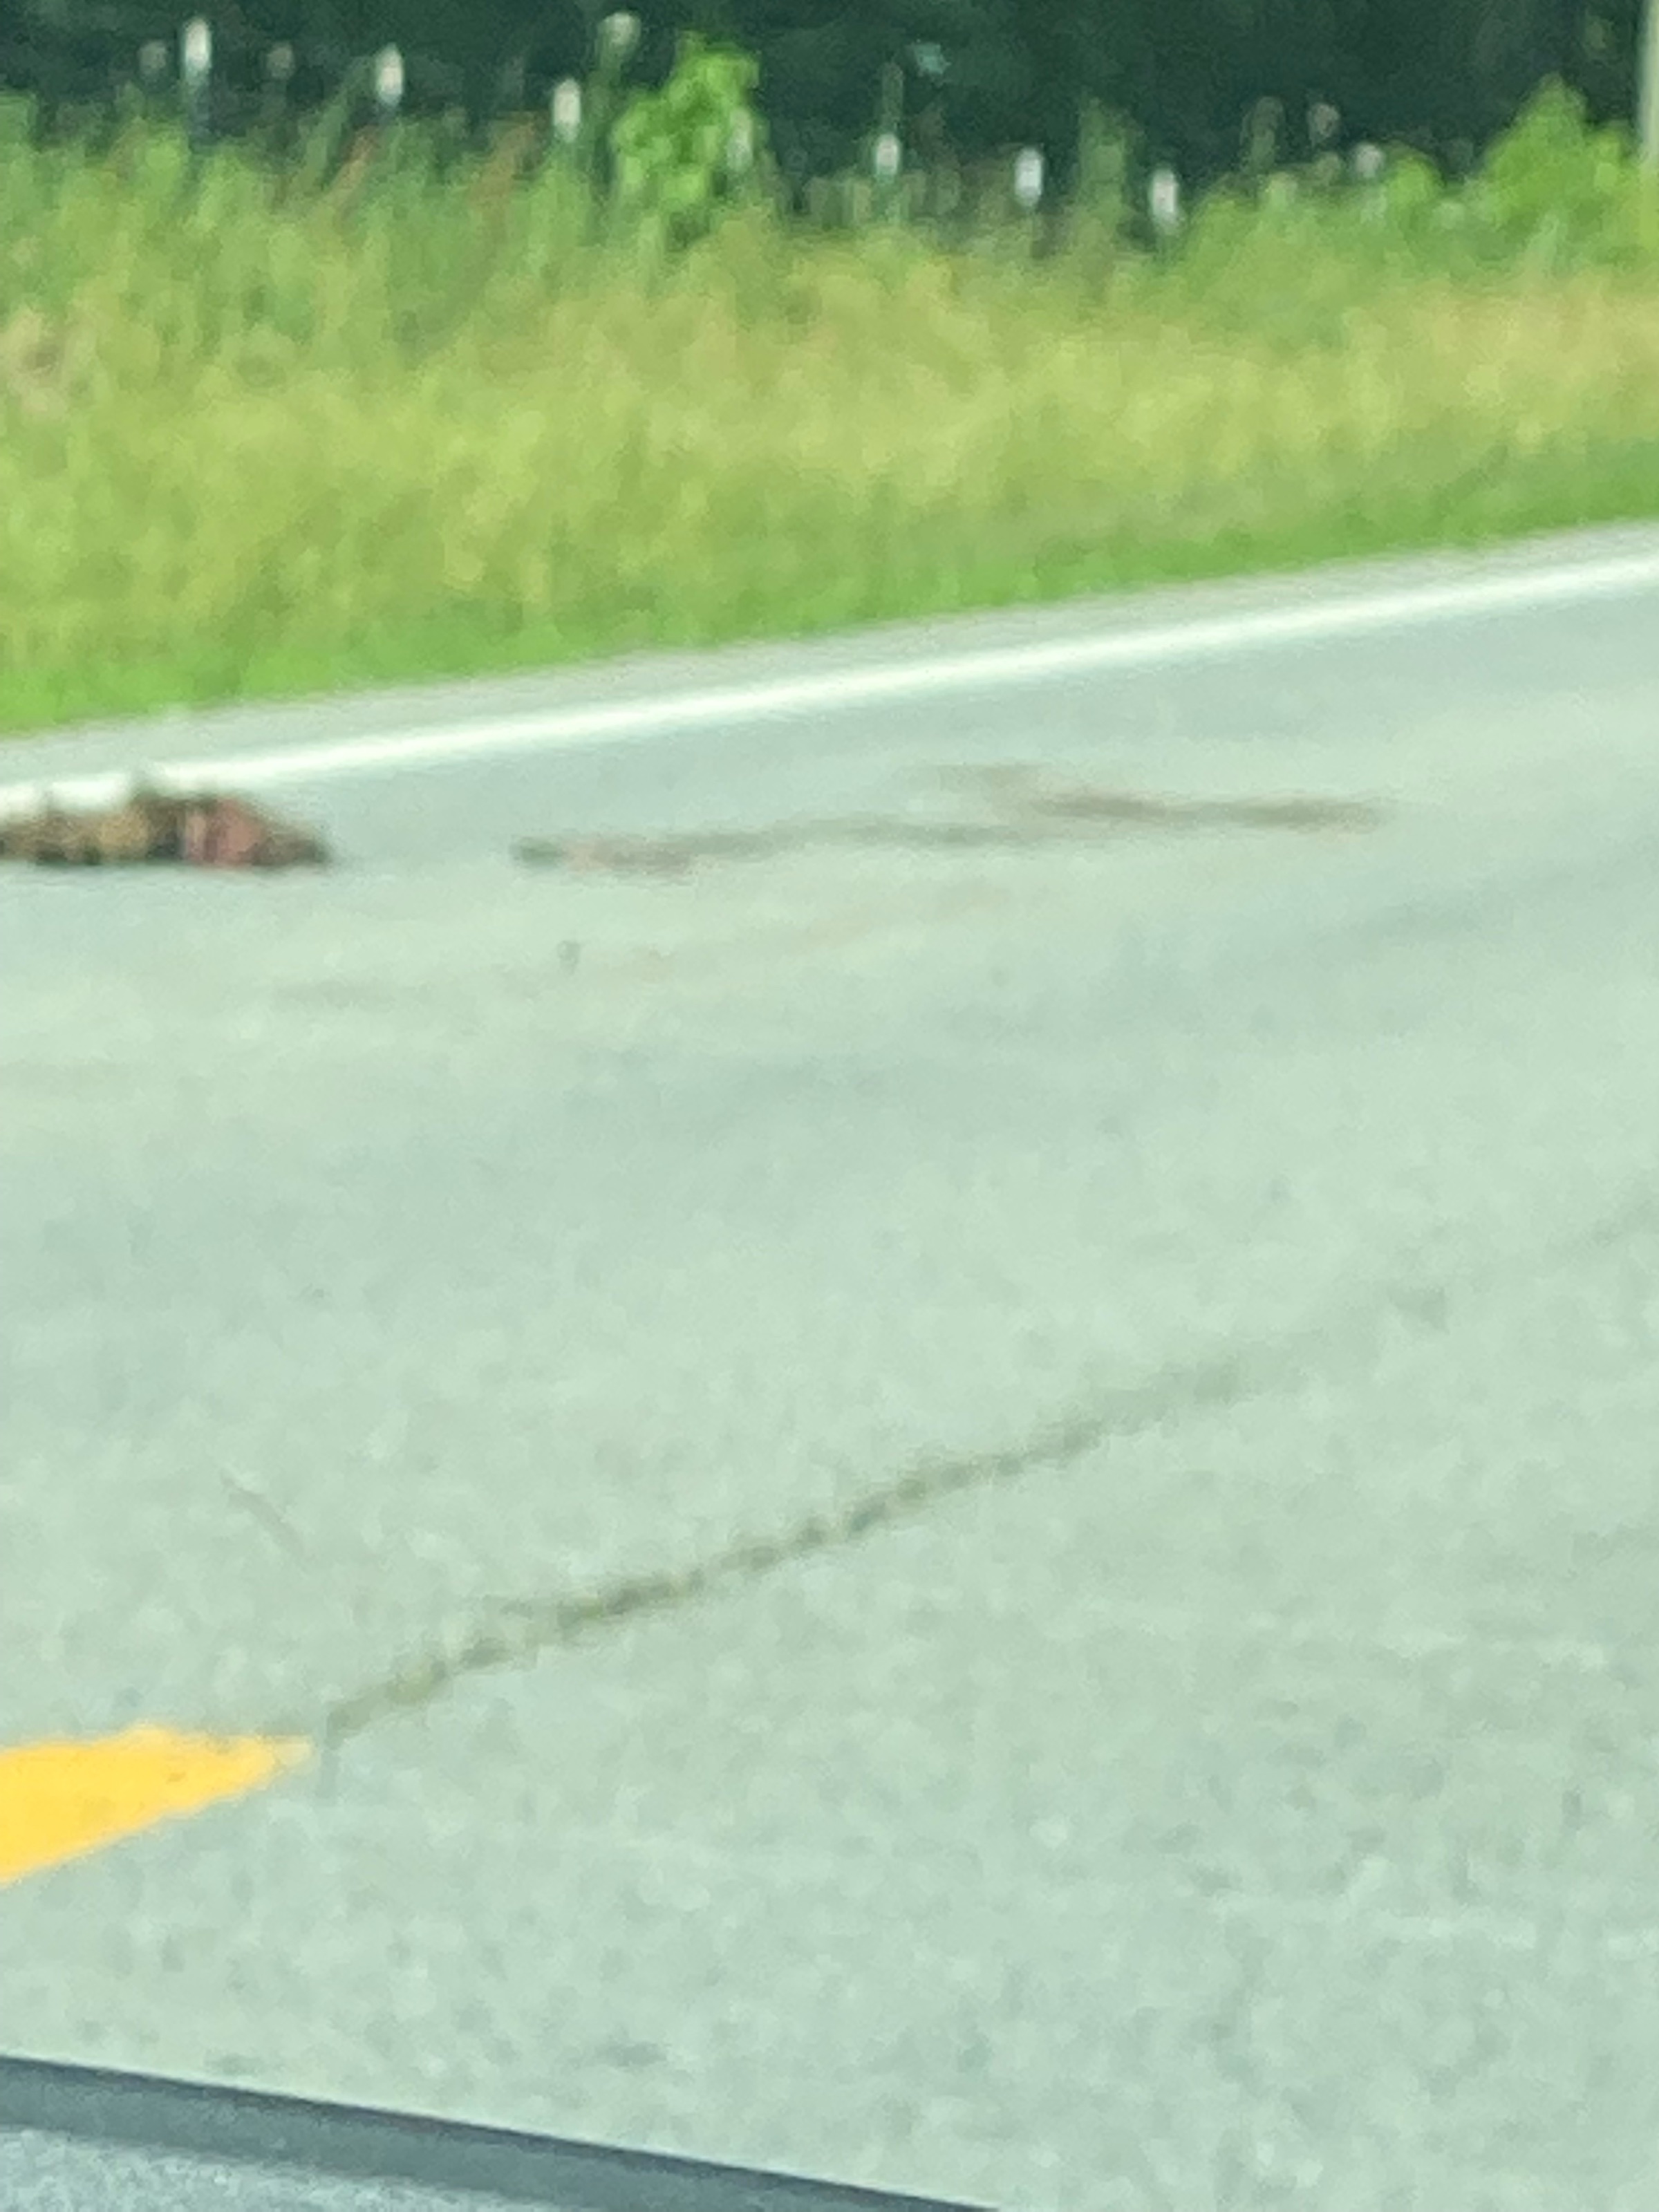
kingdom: Animalia
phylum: Chordata
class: Mammalia
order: Carnivora
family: Procyonidae
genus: Procyon
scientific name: Procyon lotor
